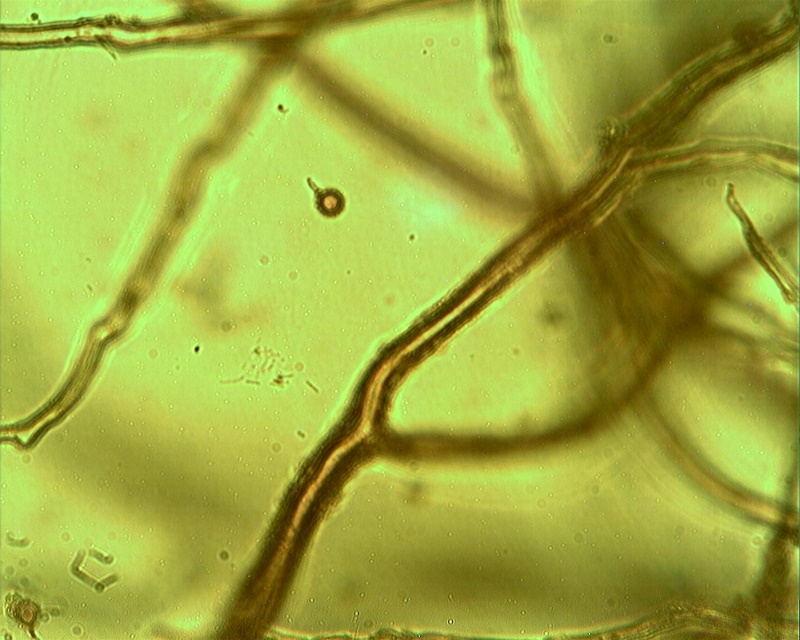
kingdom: Fungi
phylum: Basidiomycota
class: Agaricomycetes
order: Agaricales
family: Lycoperdaceae
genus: Bovista
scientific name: Bovista nigrescens
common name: sortagtig bovist
